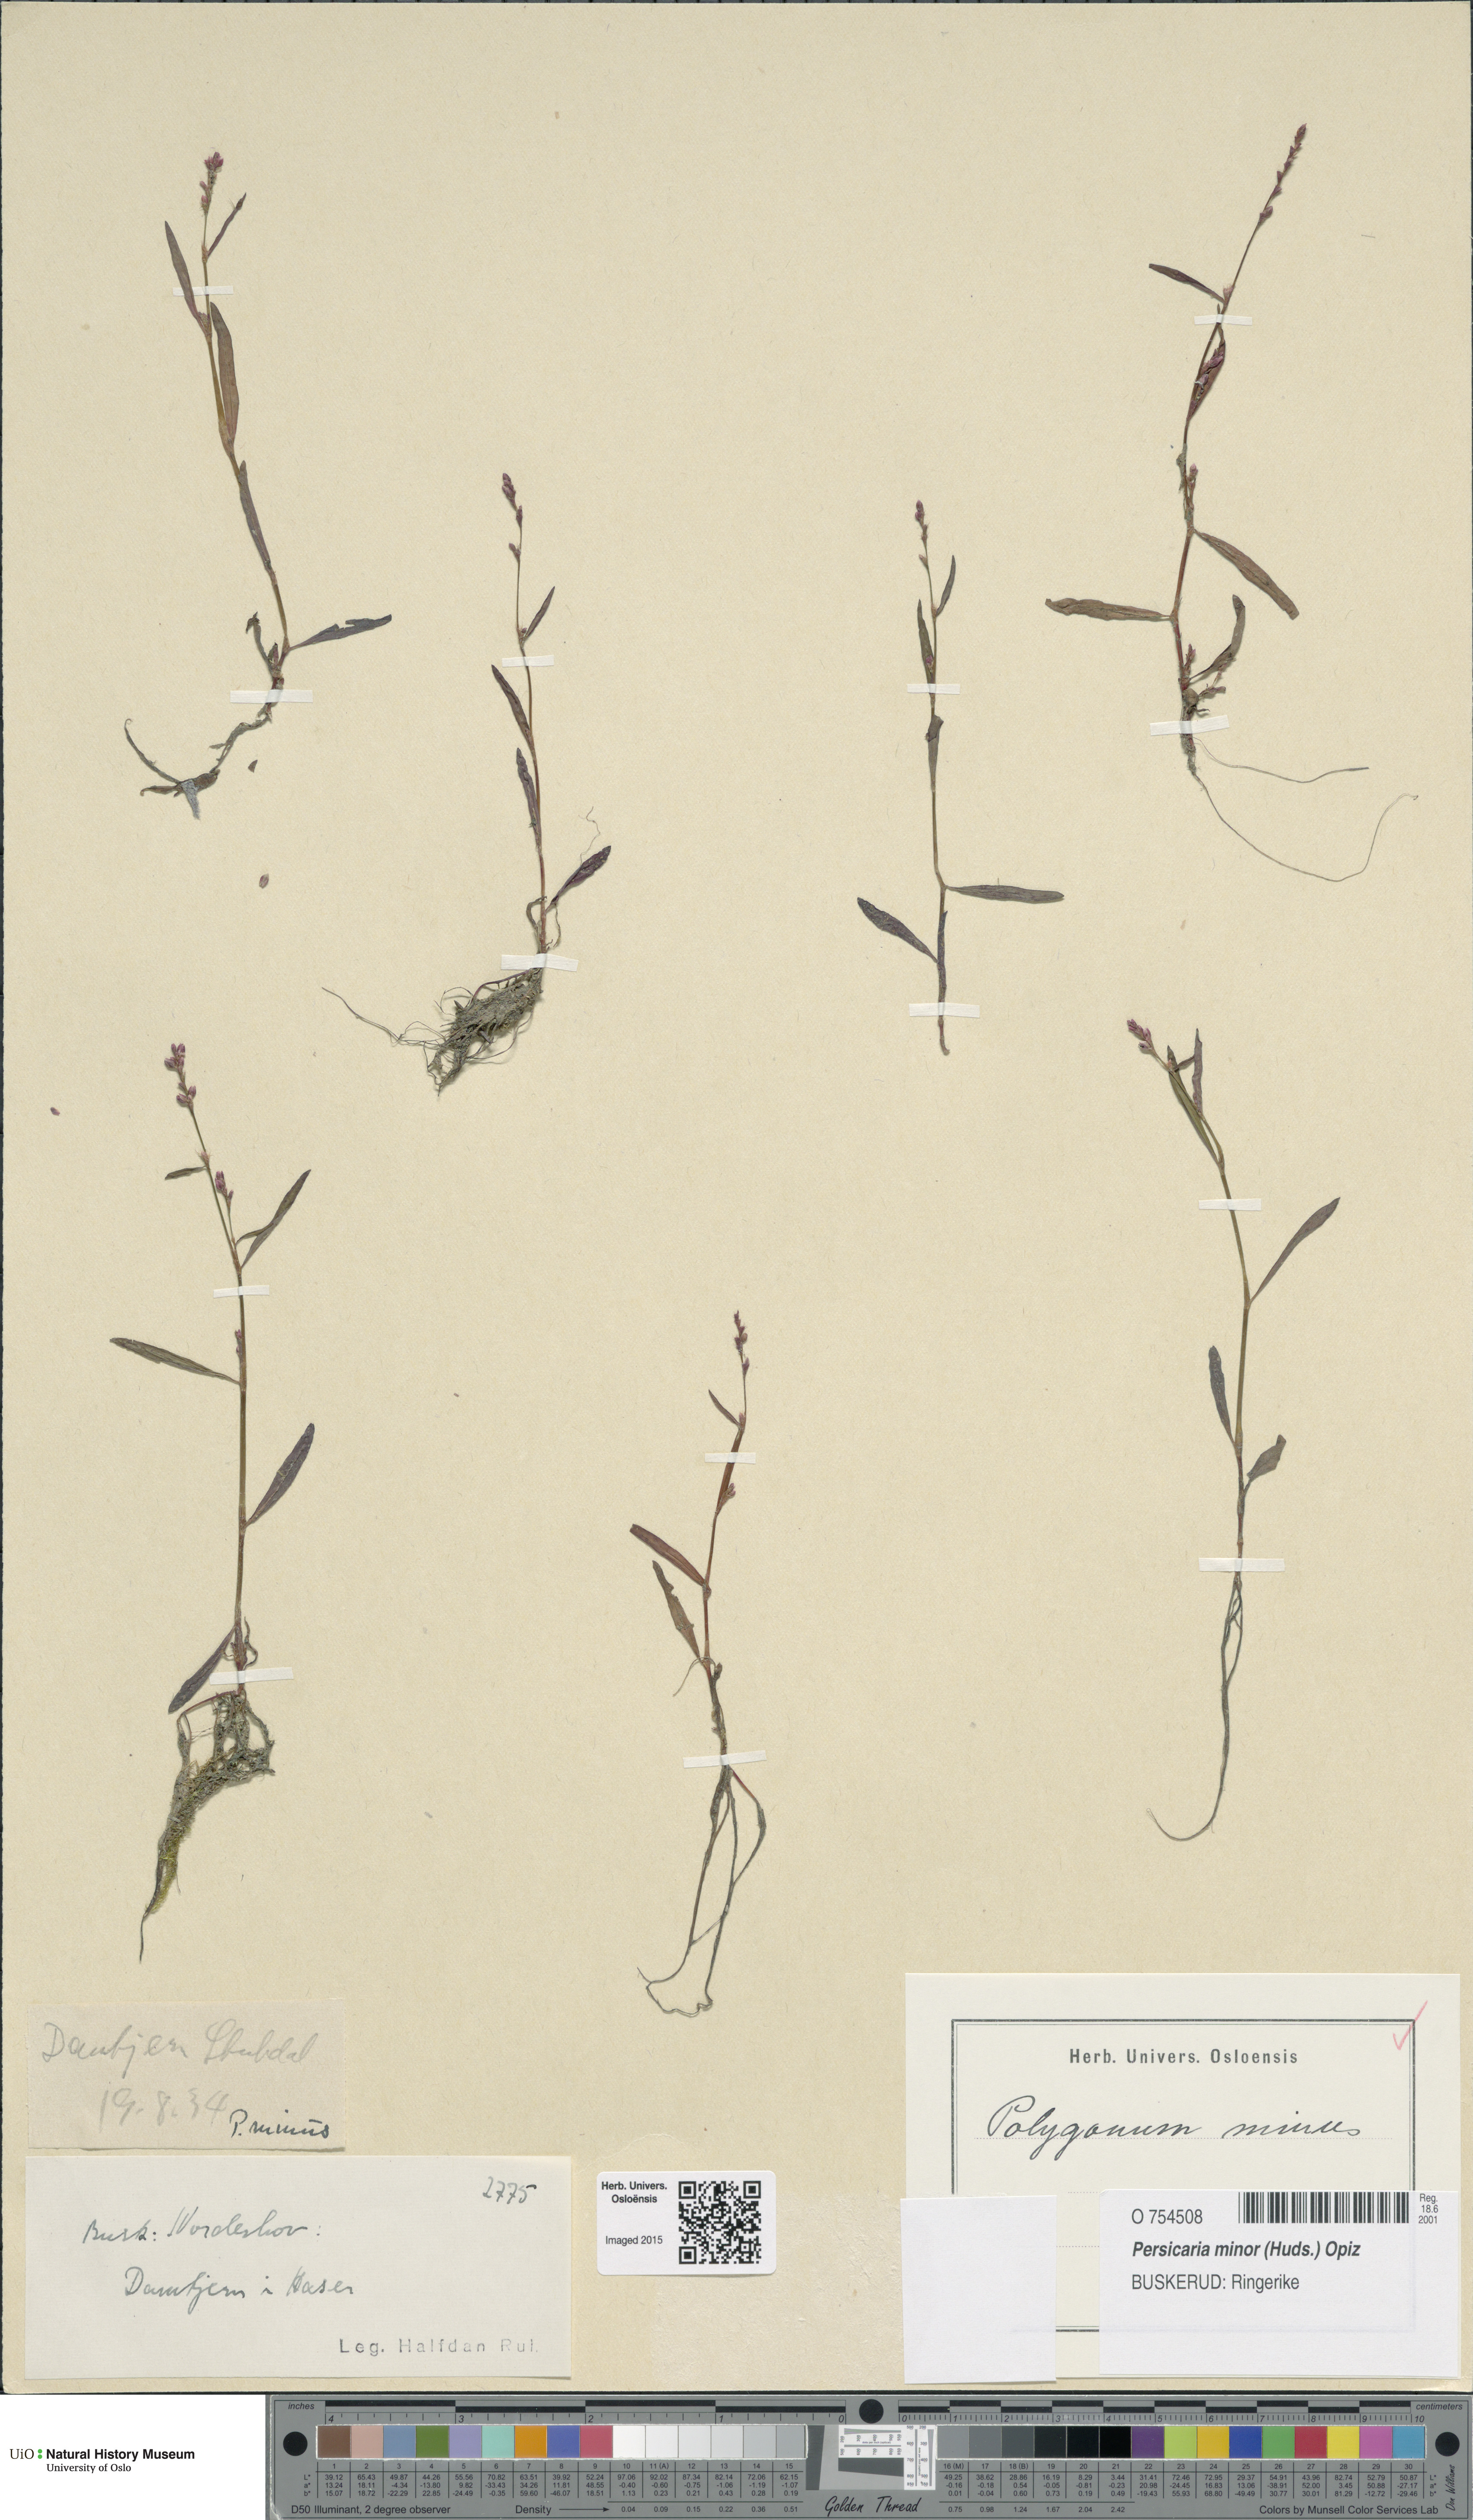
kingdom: Plantae
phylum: Tracheophyta
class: Magnoliopsida
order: Caryophyllales
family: Polygonaceae
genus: Persicaria
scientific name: Persicaria minor
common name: Small water-pepper
